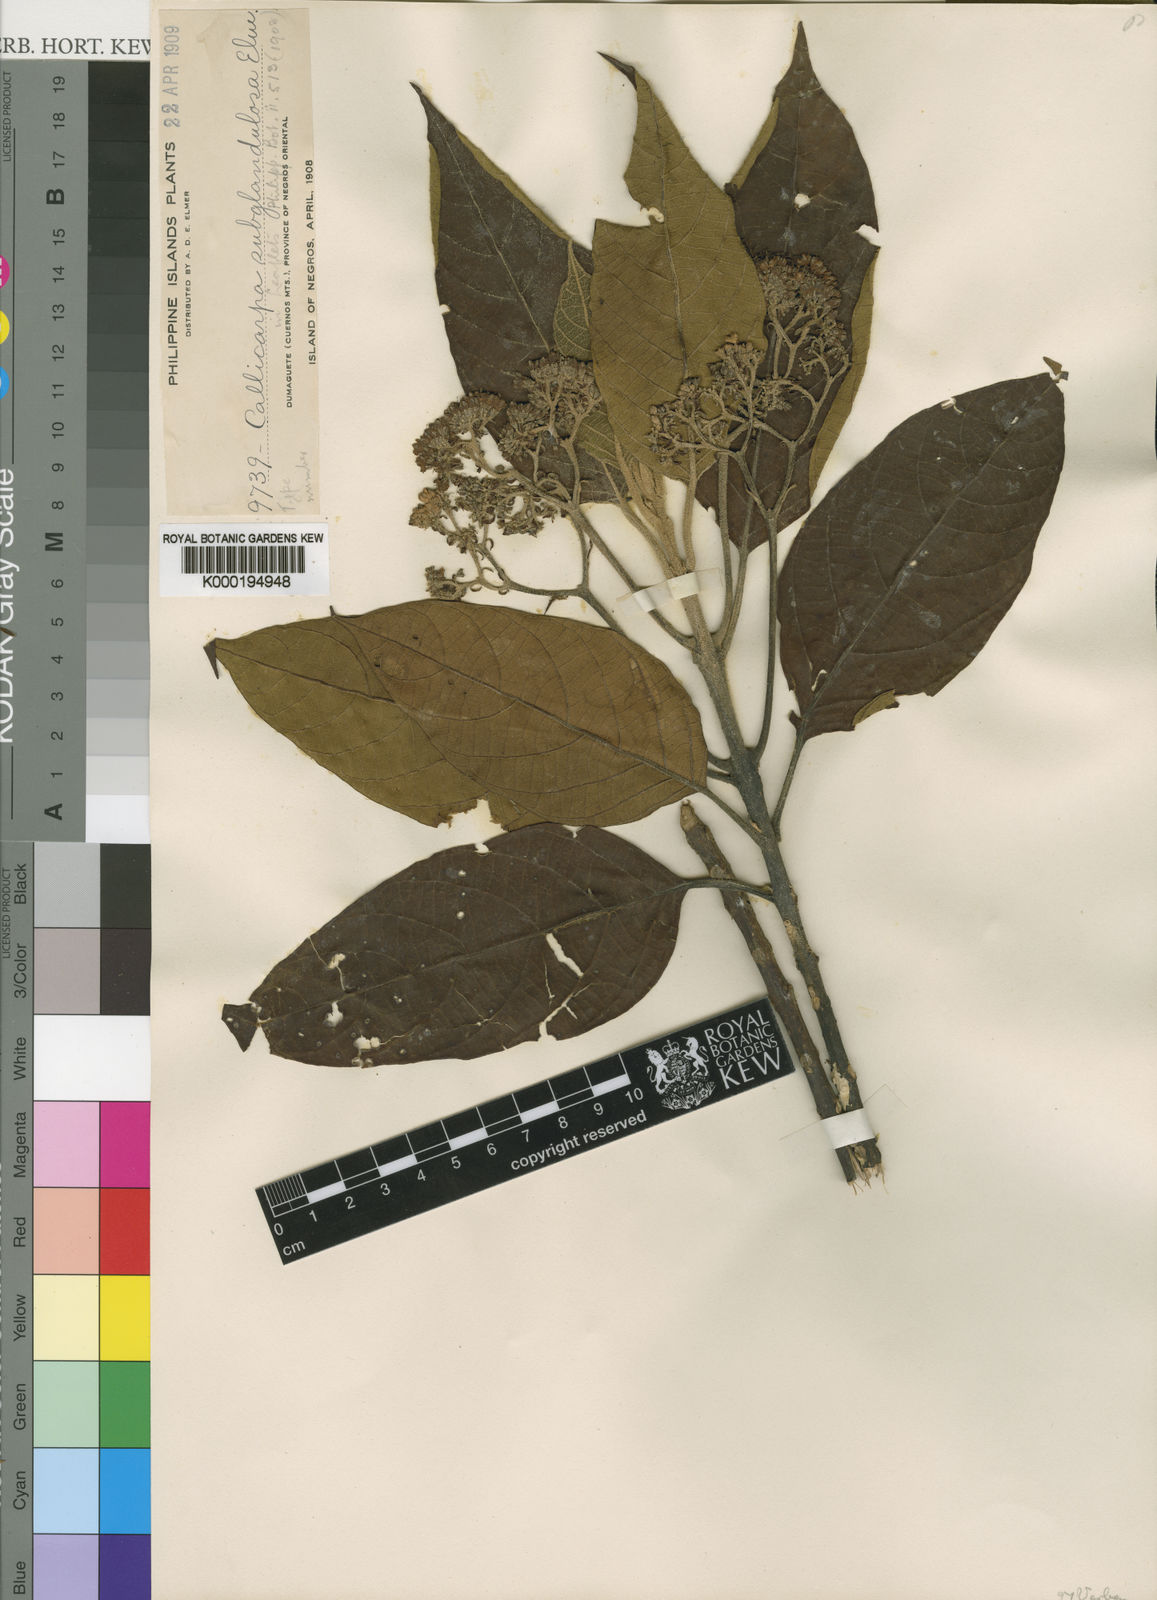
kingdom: Plantae
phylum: Tracheophyta
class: Magnoliopsida
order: Lamiales
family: Lamiaceae
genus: Callicarpa
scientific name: Callicarpa pentandra
